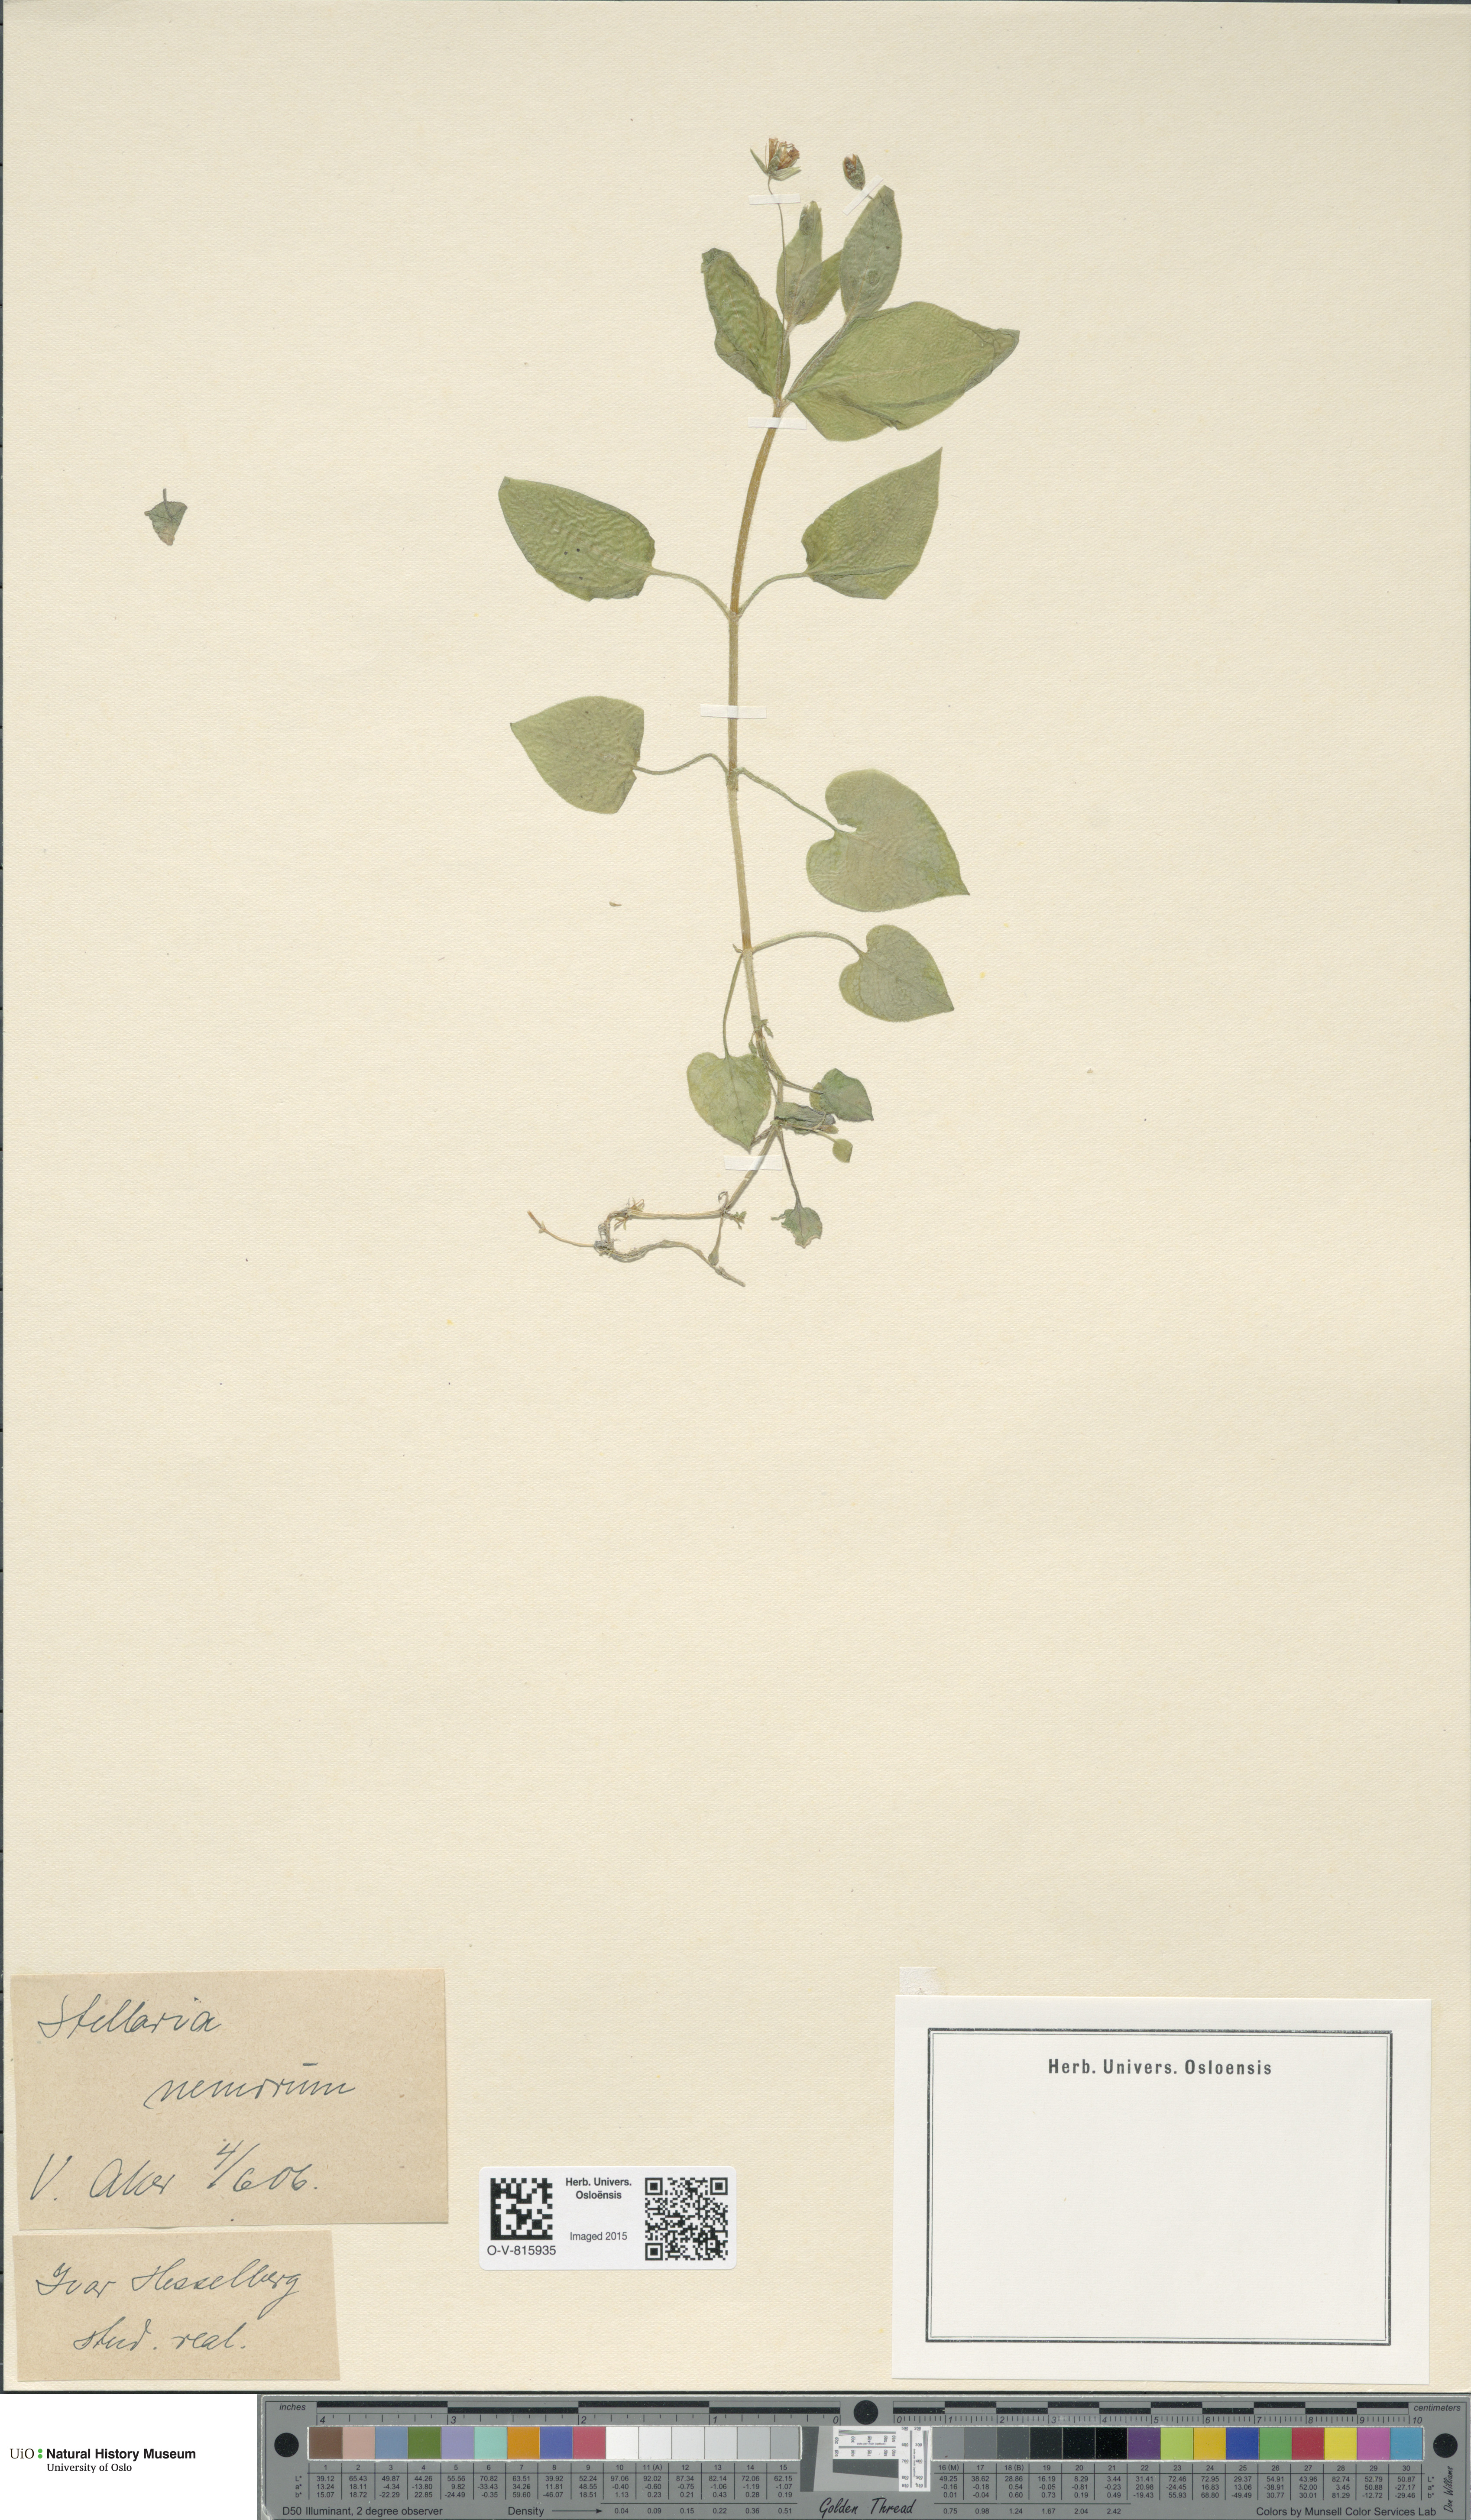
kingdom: Plantae
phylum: Tracheophyta
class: Magnoliopsida
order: Caryophyllales
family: Caryophyllaceae
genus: Stellaria
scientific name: Stellaria nemorum
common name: Wood stitchwort
